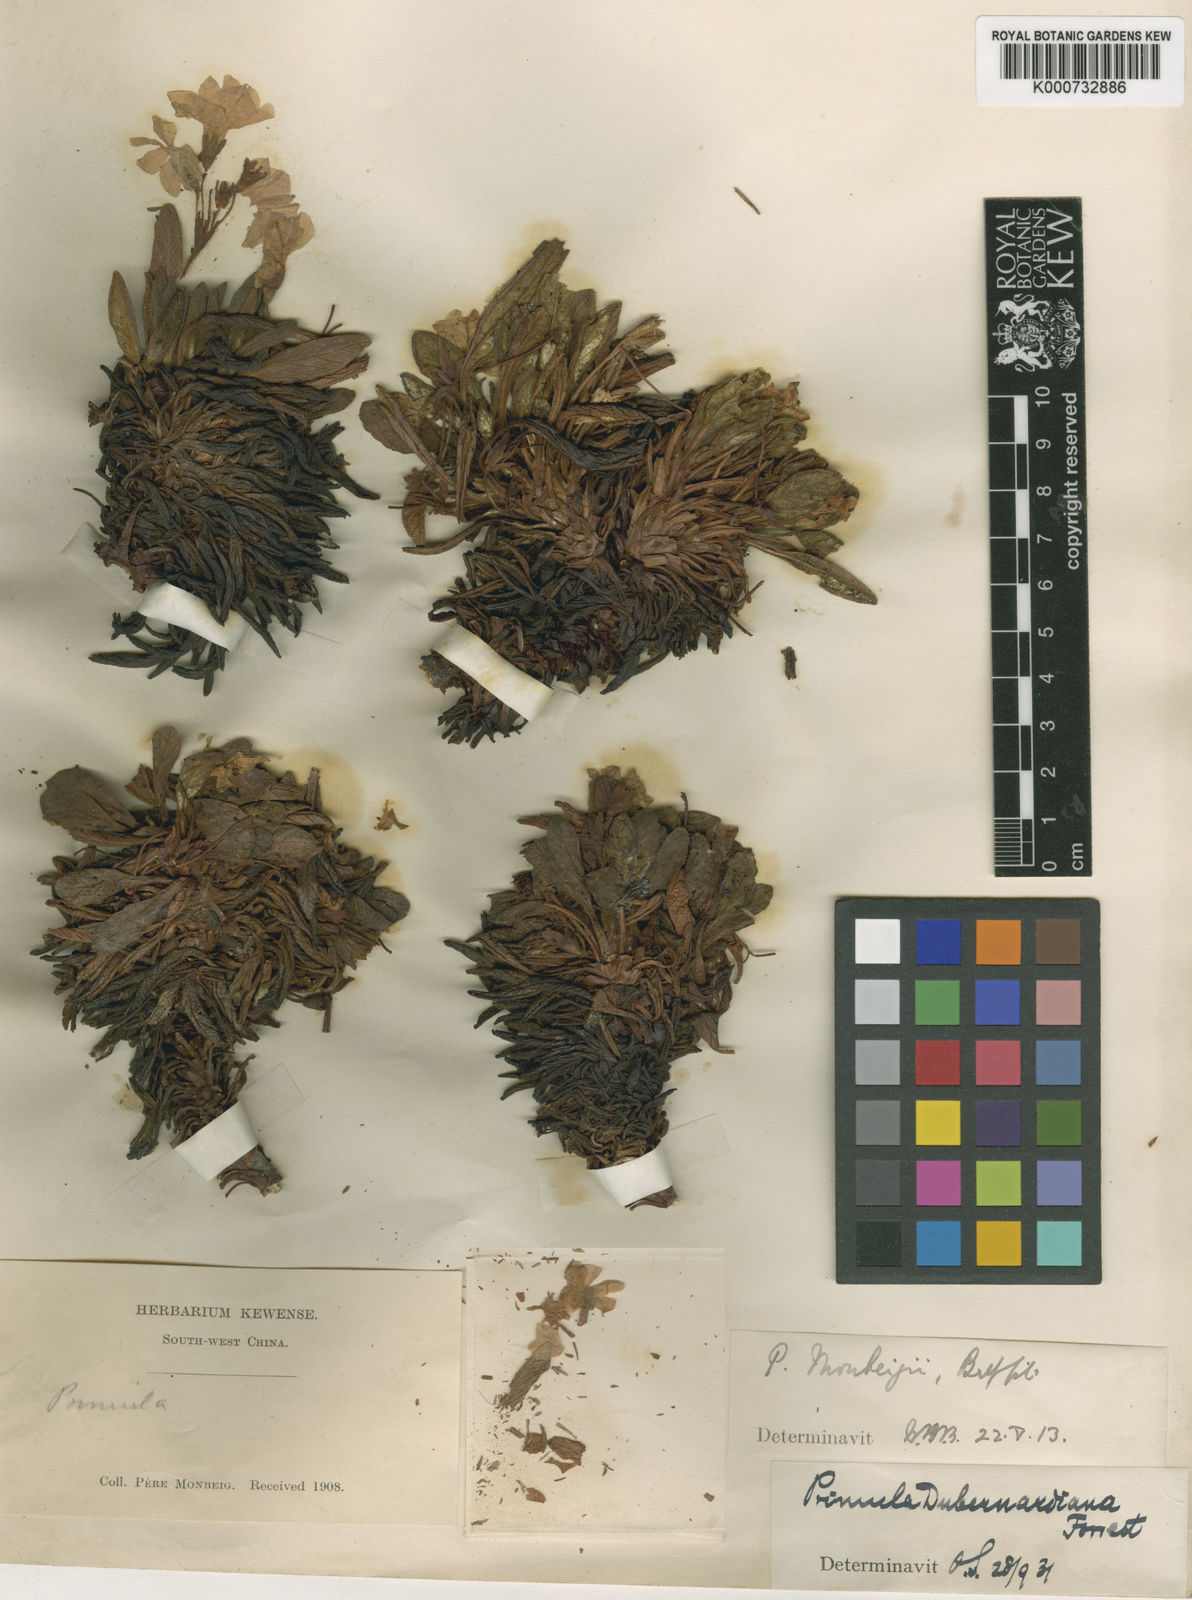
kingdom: Plantae
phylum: Tracheophyta
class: Magnoliopsida
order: Ericales
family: Primulaceae
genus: Primula
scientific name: Primula henrici
